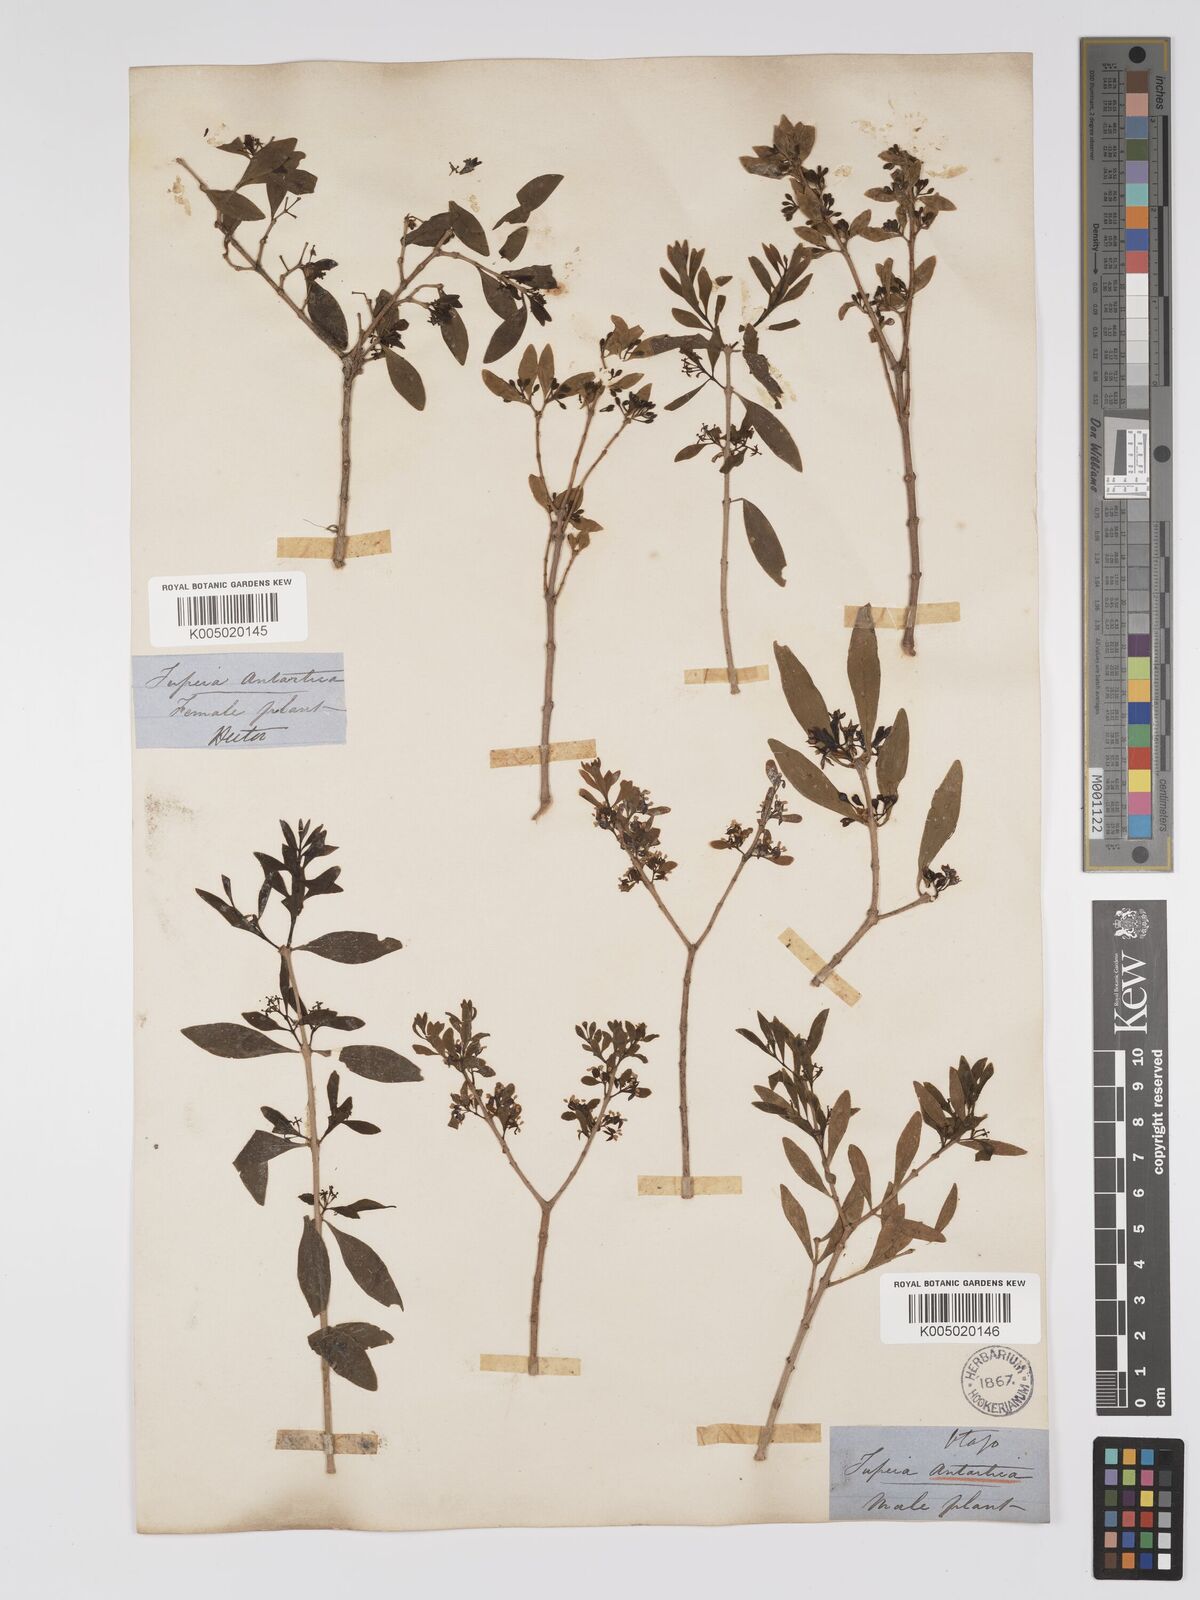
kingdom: Plantae
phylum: Tracheophyta
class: Magnoliopsida
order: Santalales
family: Loranthaceae
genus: Tupeia
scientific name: Tupeia antarctica
